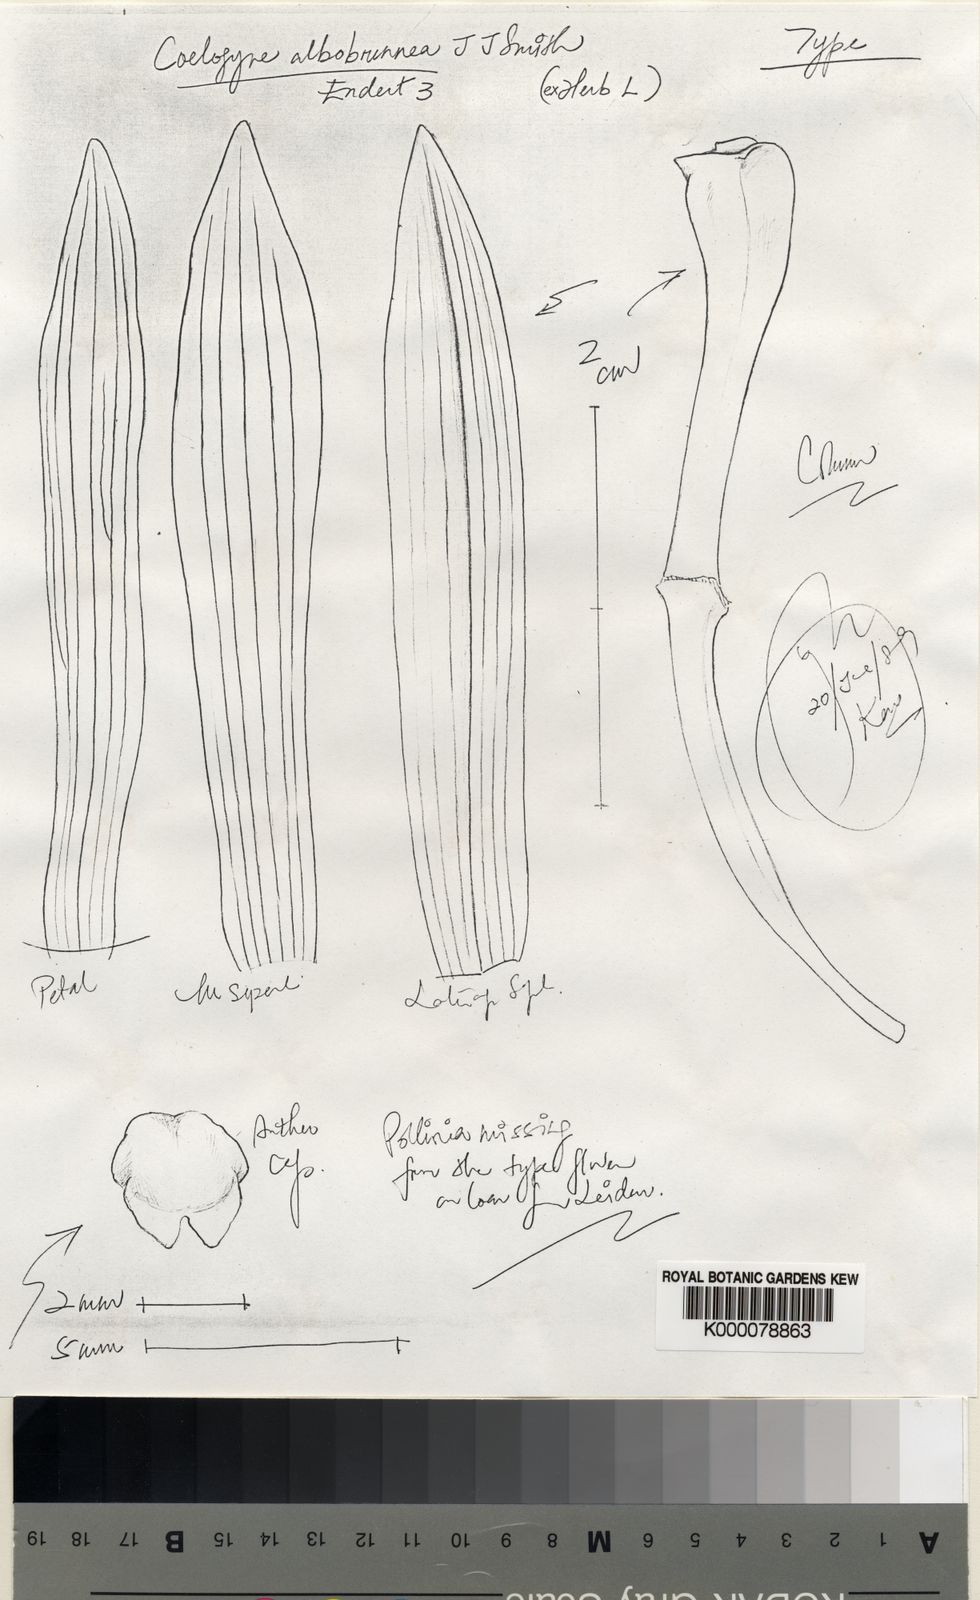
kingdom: Plantae
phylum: Tracheophyta
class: Liliopsida
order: Asparagales
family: Orchidaceae
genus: Coelogyne
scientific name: Coelogyne albobrunnea
